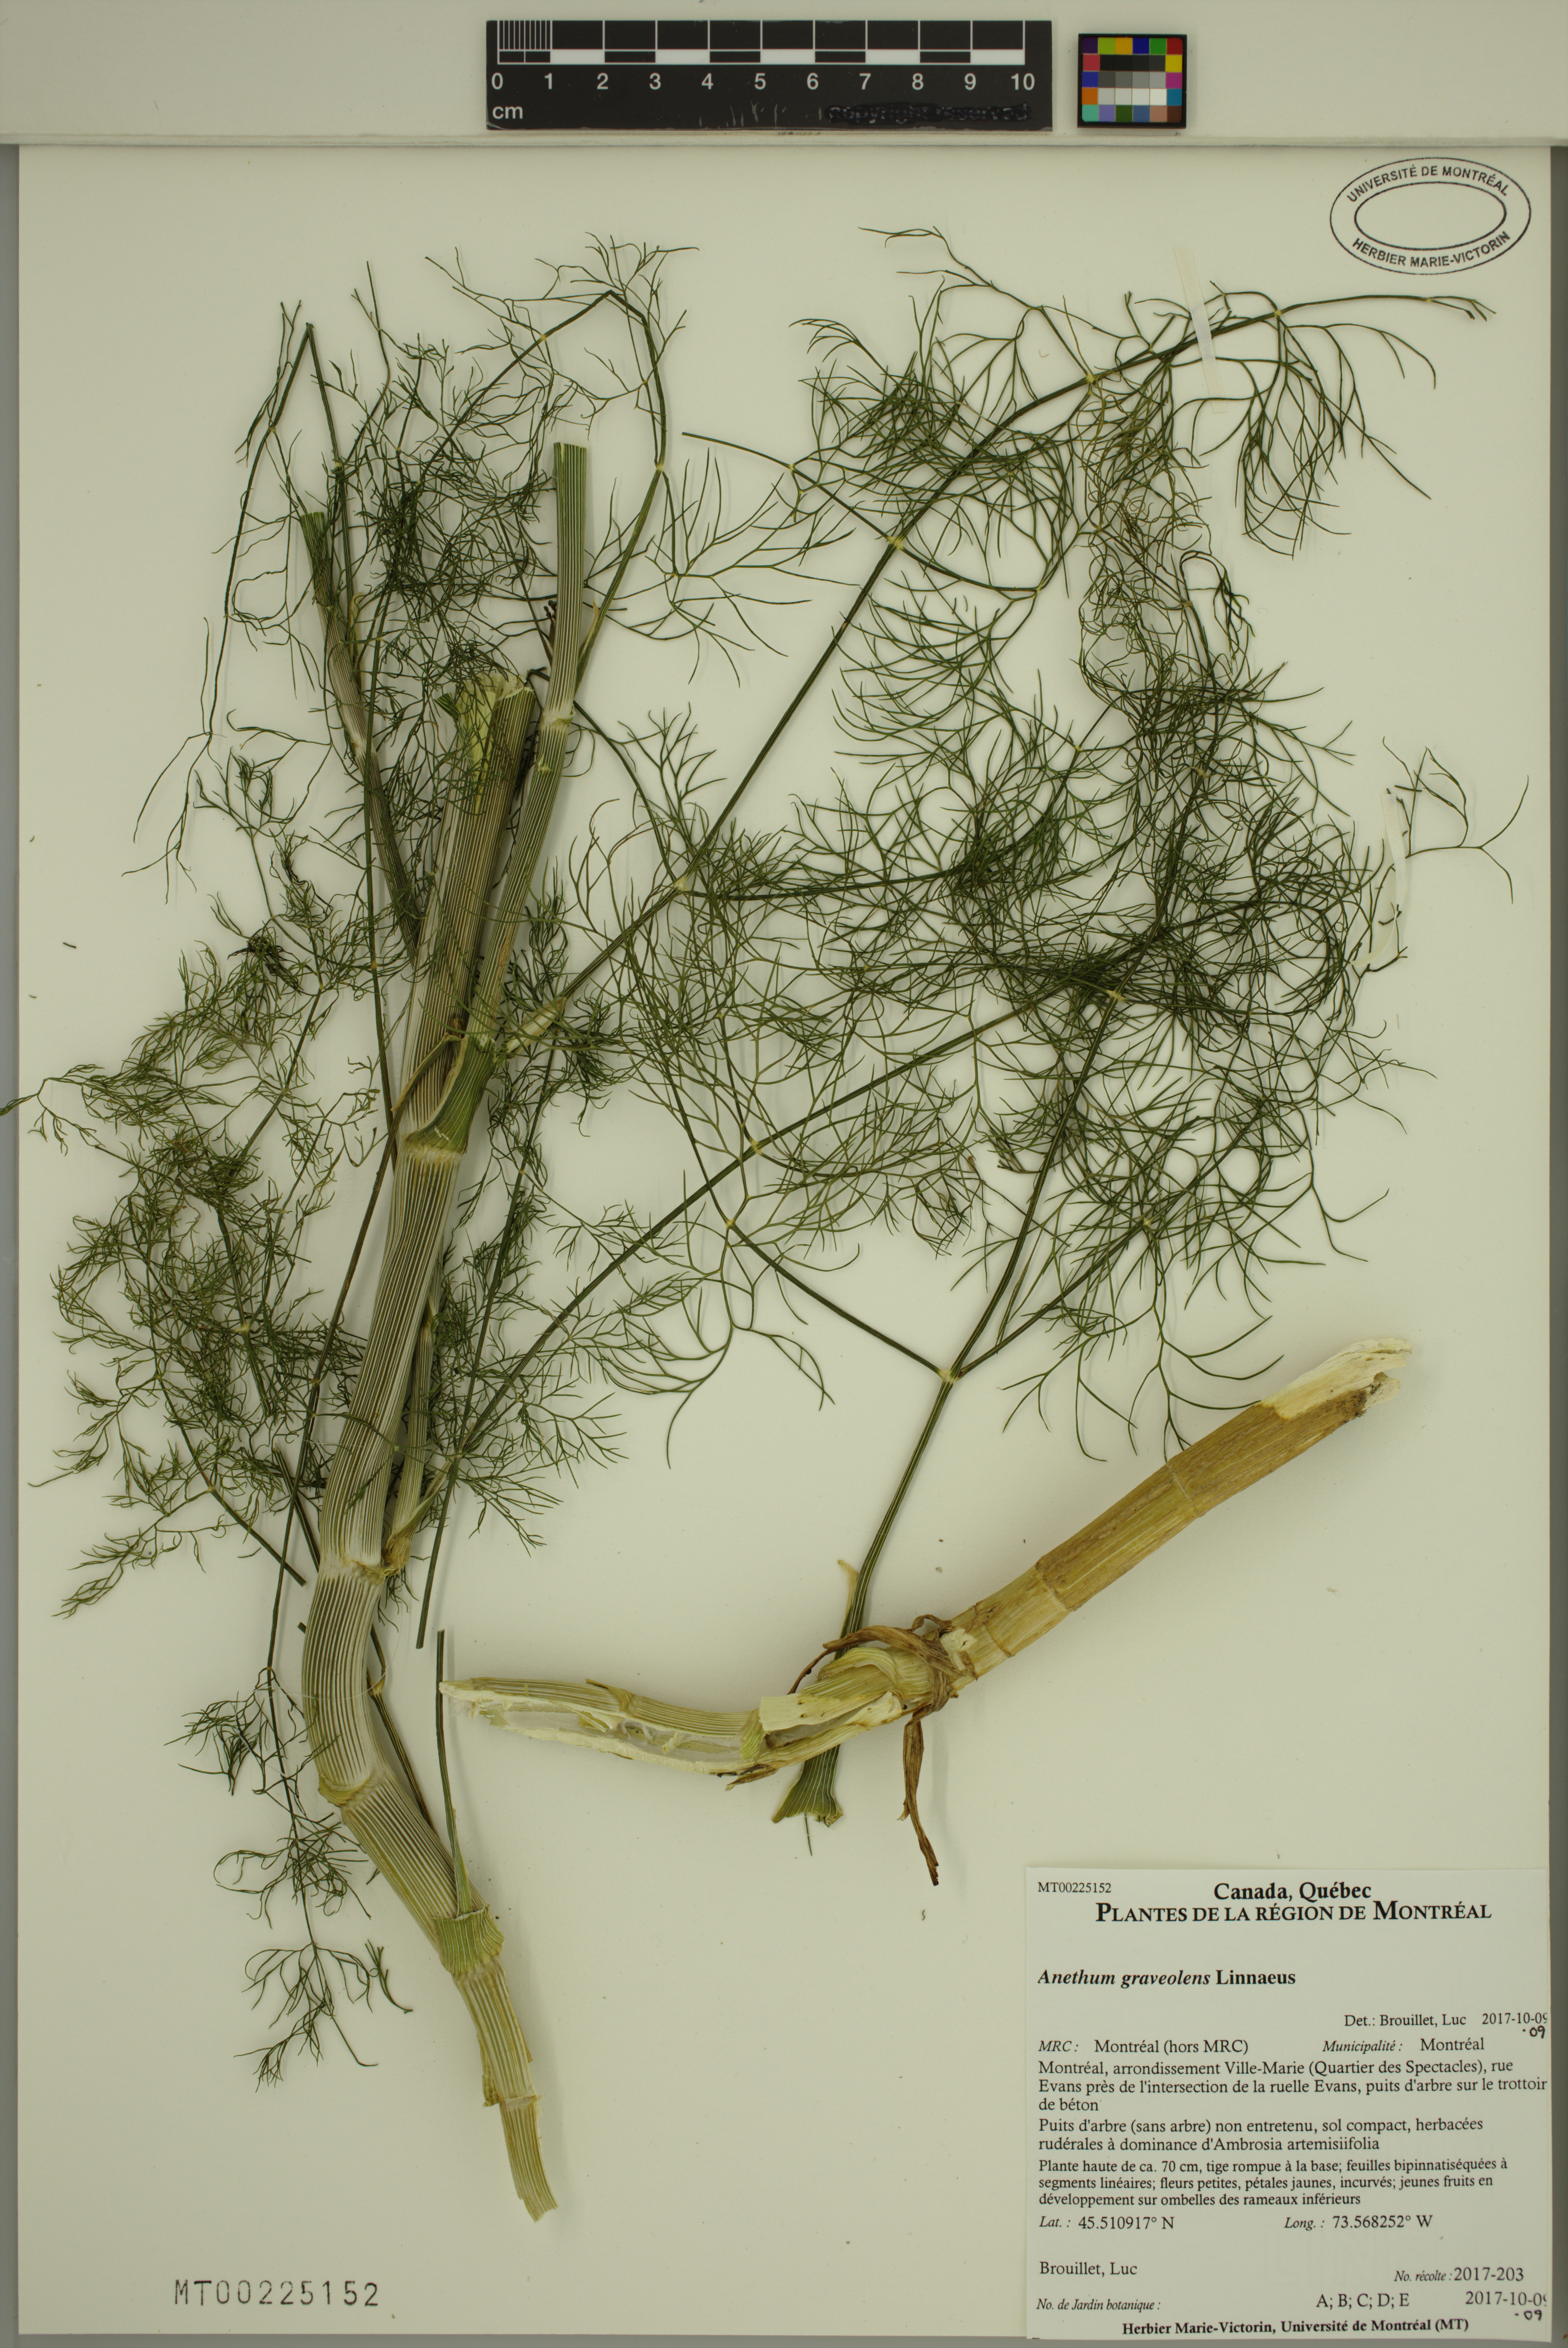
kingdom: Plantae
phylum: Tracheophyta
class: Magnoliopsida
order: Apiales
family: Apiaceae
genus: Anethum
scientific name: Anethum graveolens
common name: Dill
